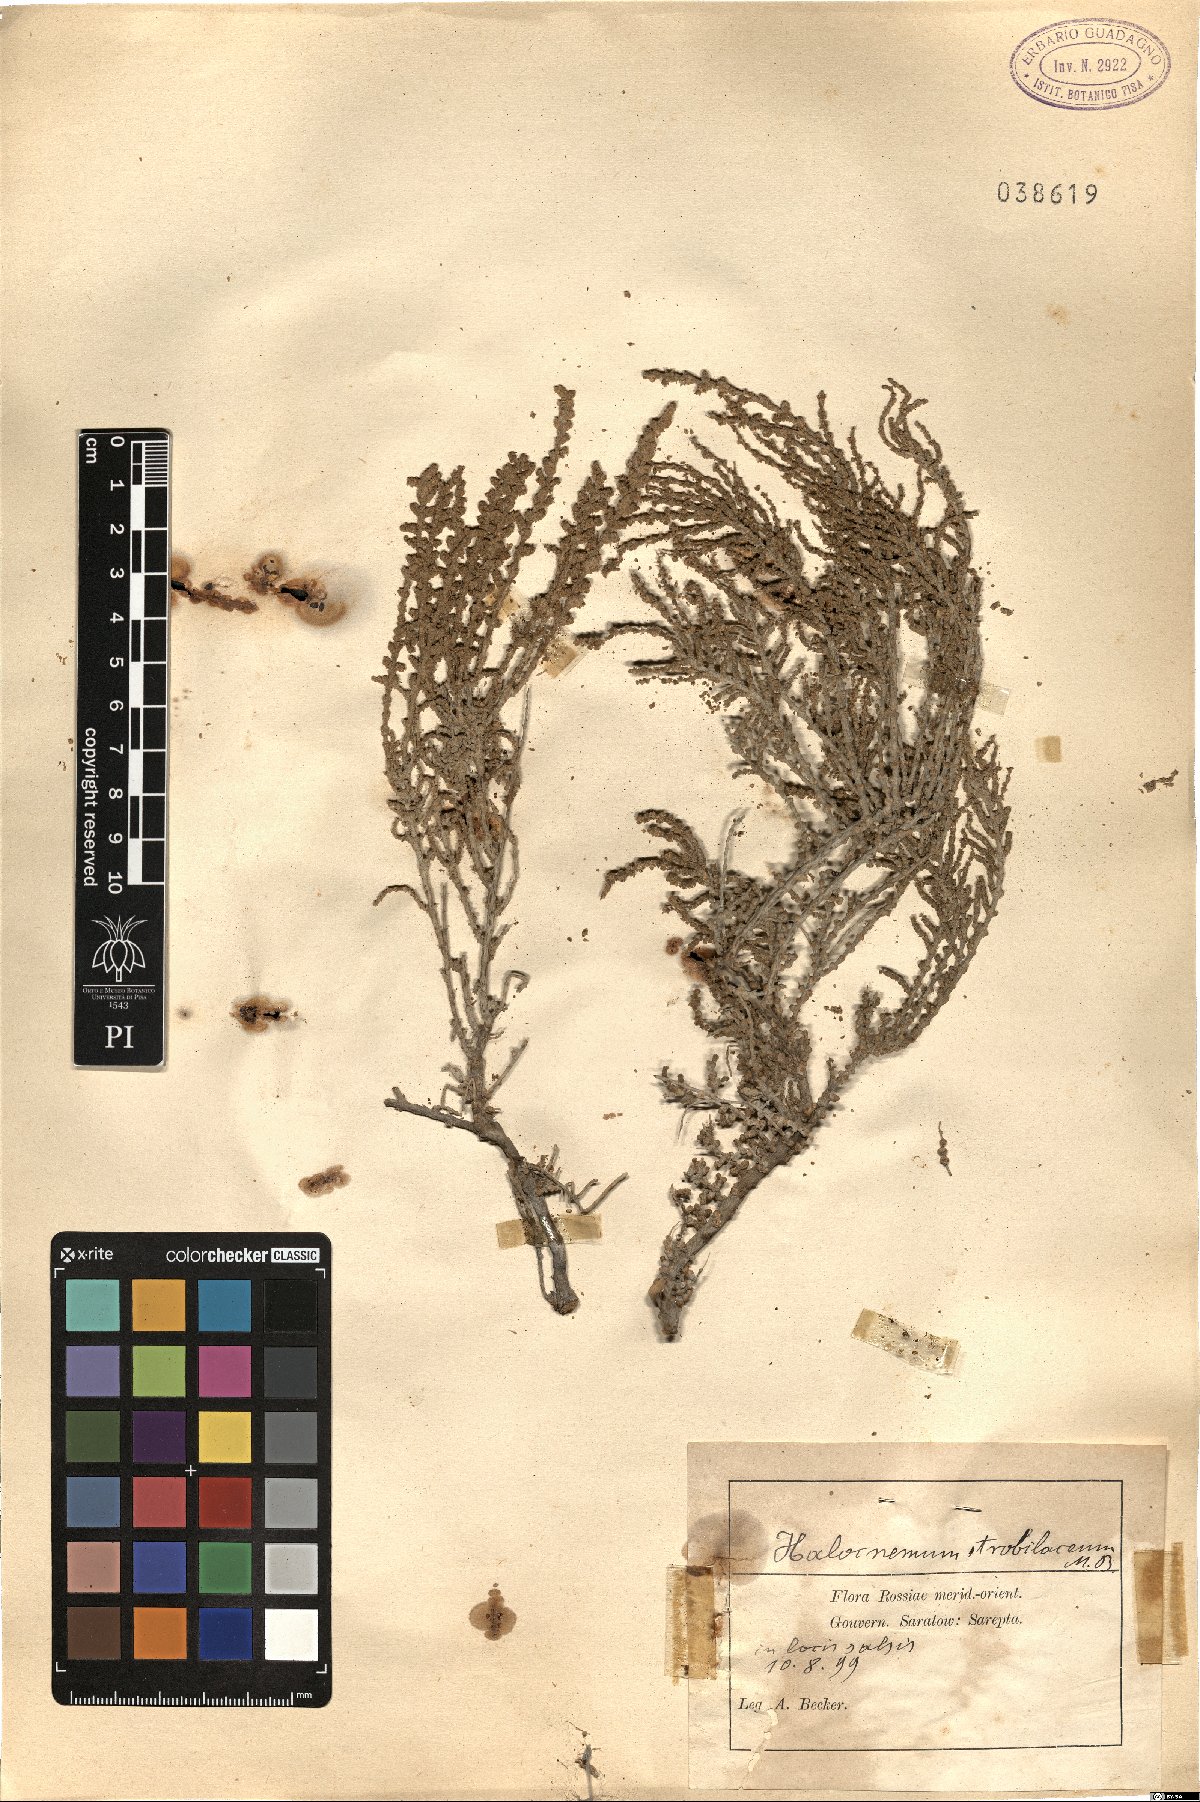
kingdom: Plantae
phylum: Tracheophyta
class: Magnoliopsida
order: Caryophyllales
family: Amaranthaceae
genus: Halocnemum
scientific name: Halocnemum strobilaceum
